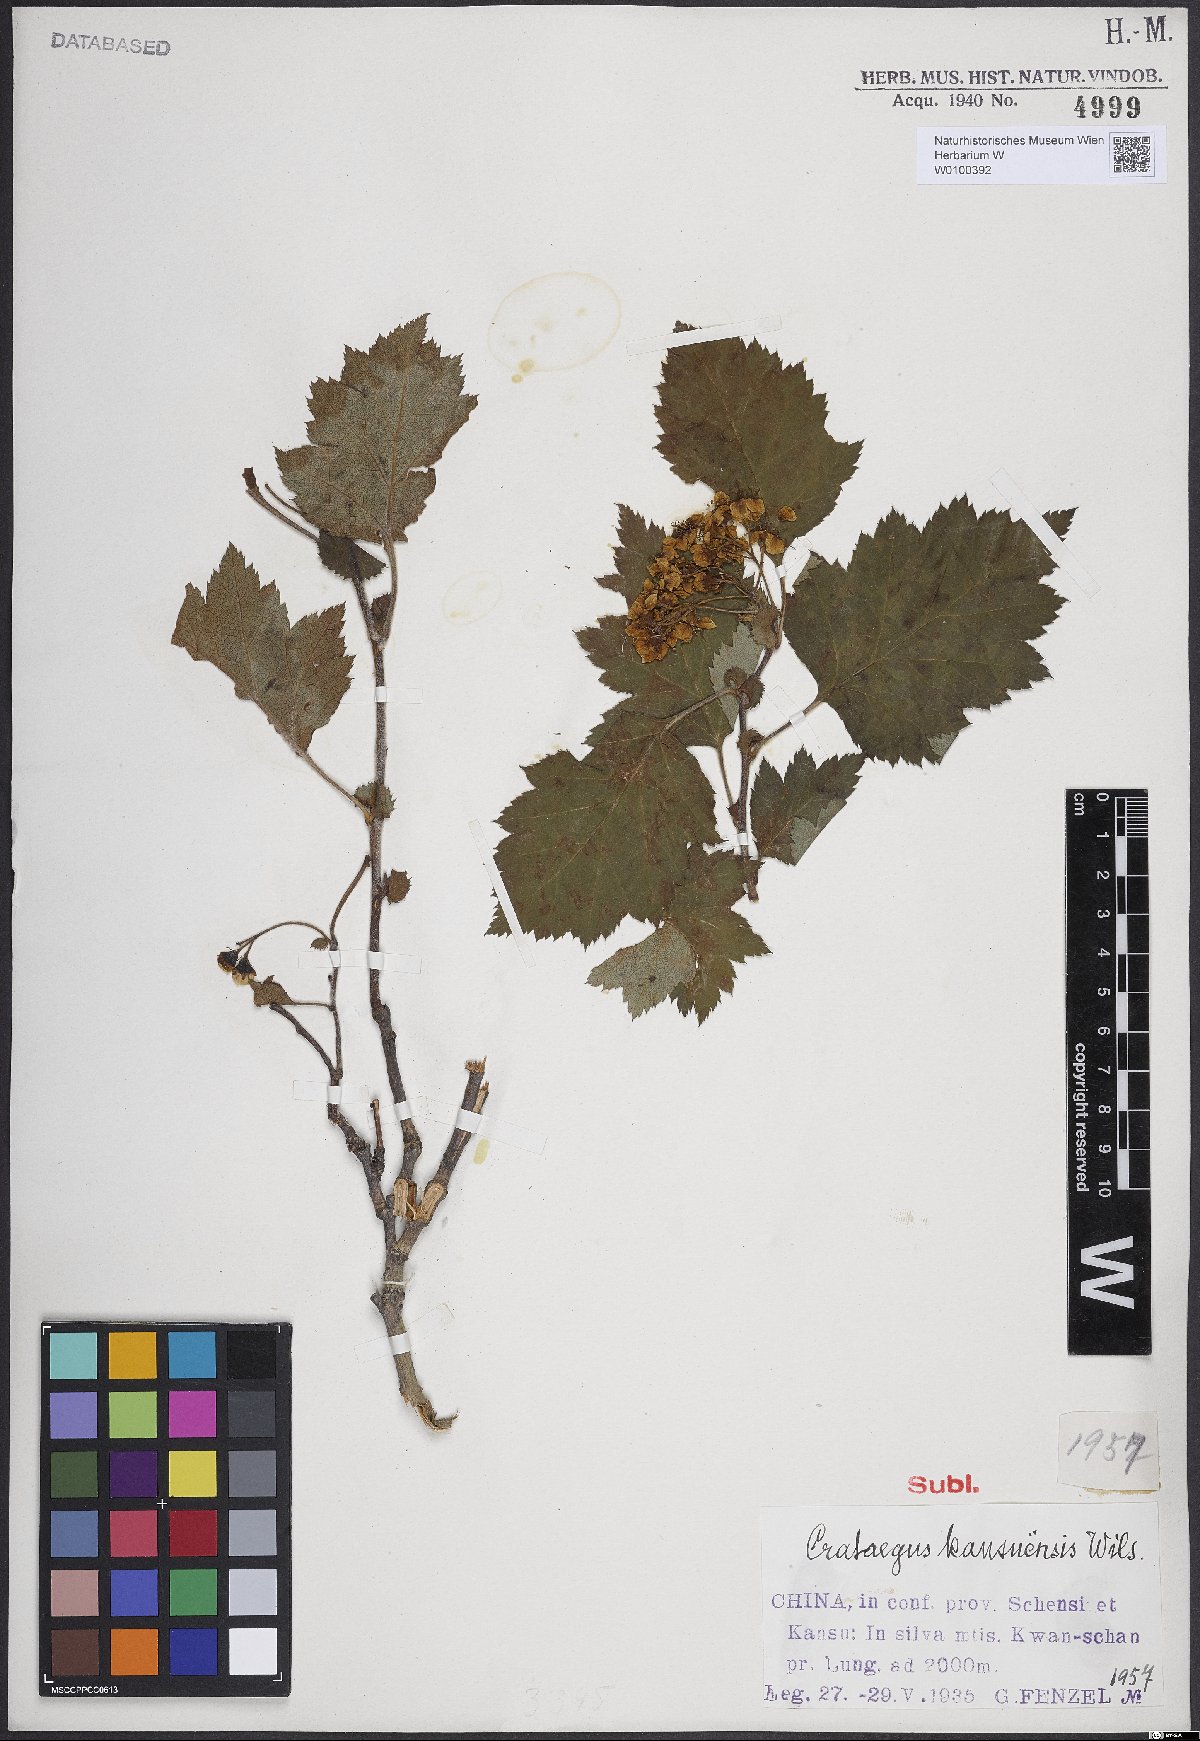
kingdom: Plantae
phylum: Tracheophyta
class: Magnoliopsida
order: Rosales
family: Rosaceae
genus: Crataegus
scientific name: Crataegus kansuensis
